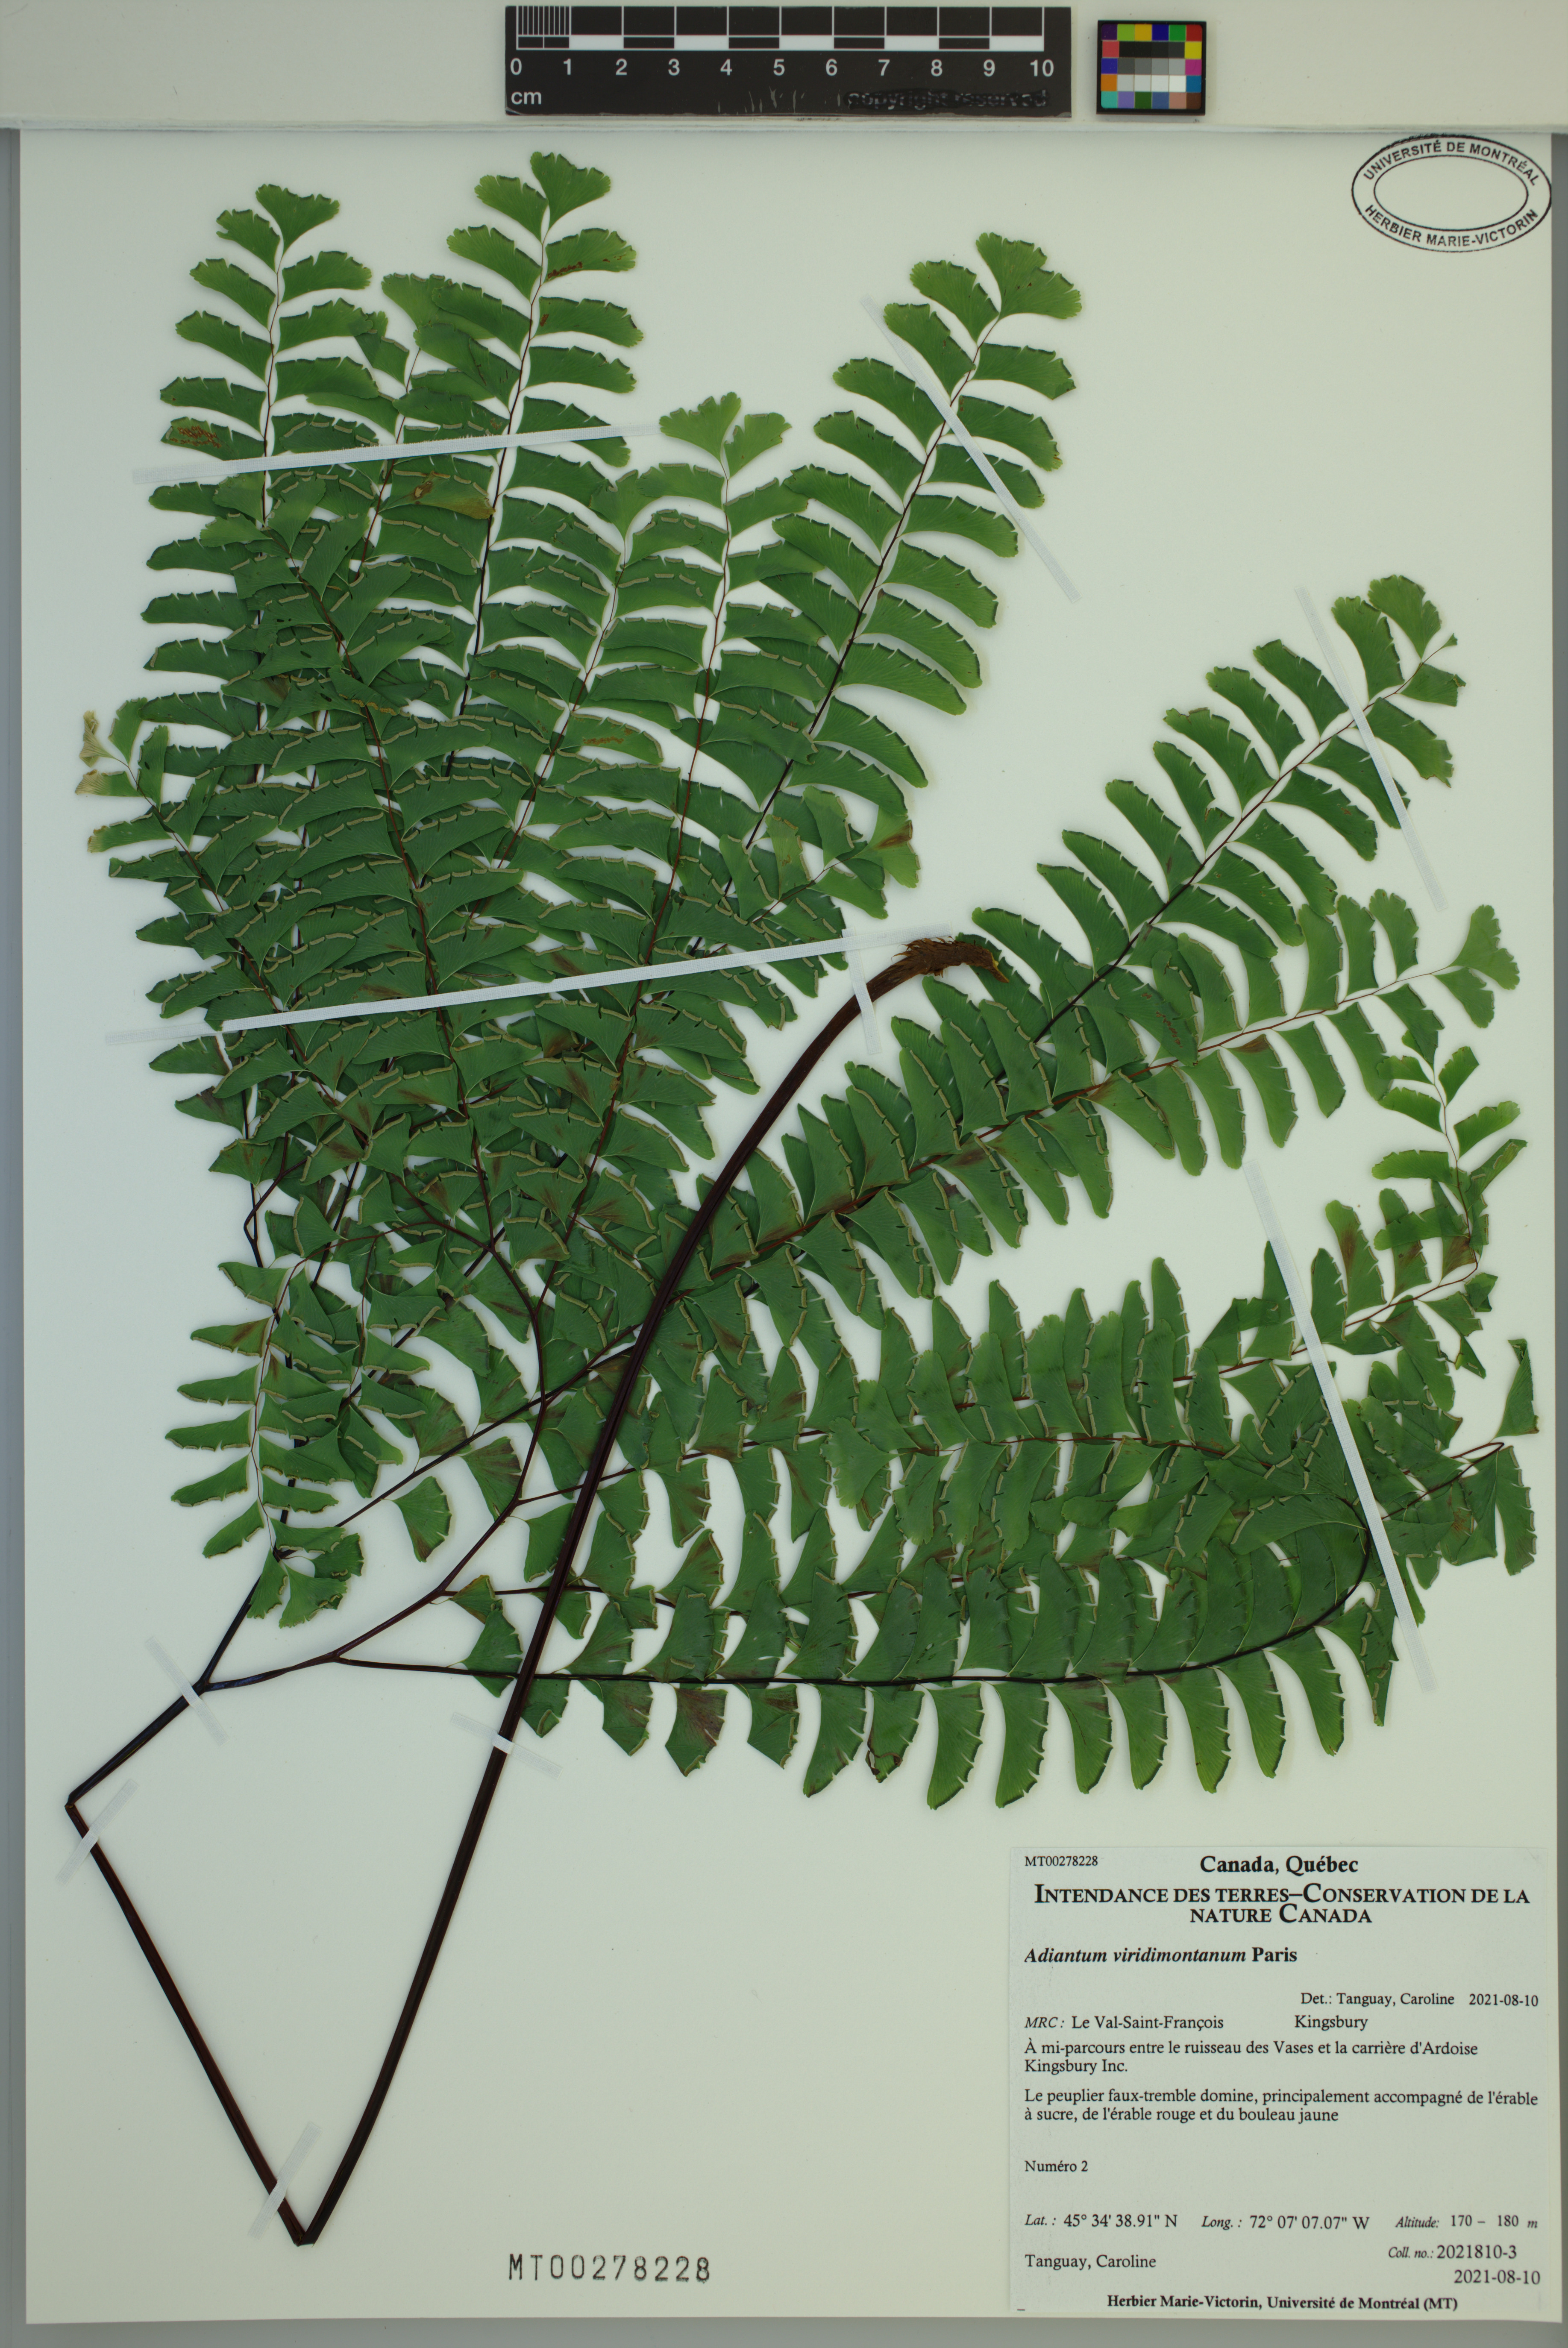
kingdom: Plantae
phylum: Tracheophyta
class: Polypodiopsida
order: Polypodiales
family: Pteridaceae
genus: Adiantum
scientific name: Adiantum viridimontanum
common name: Green mountain maidenhair
